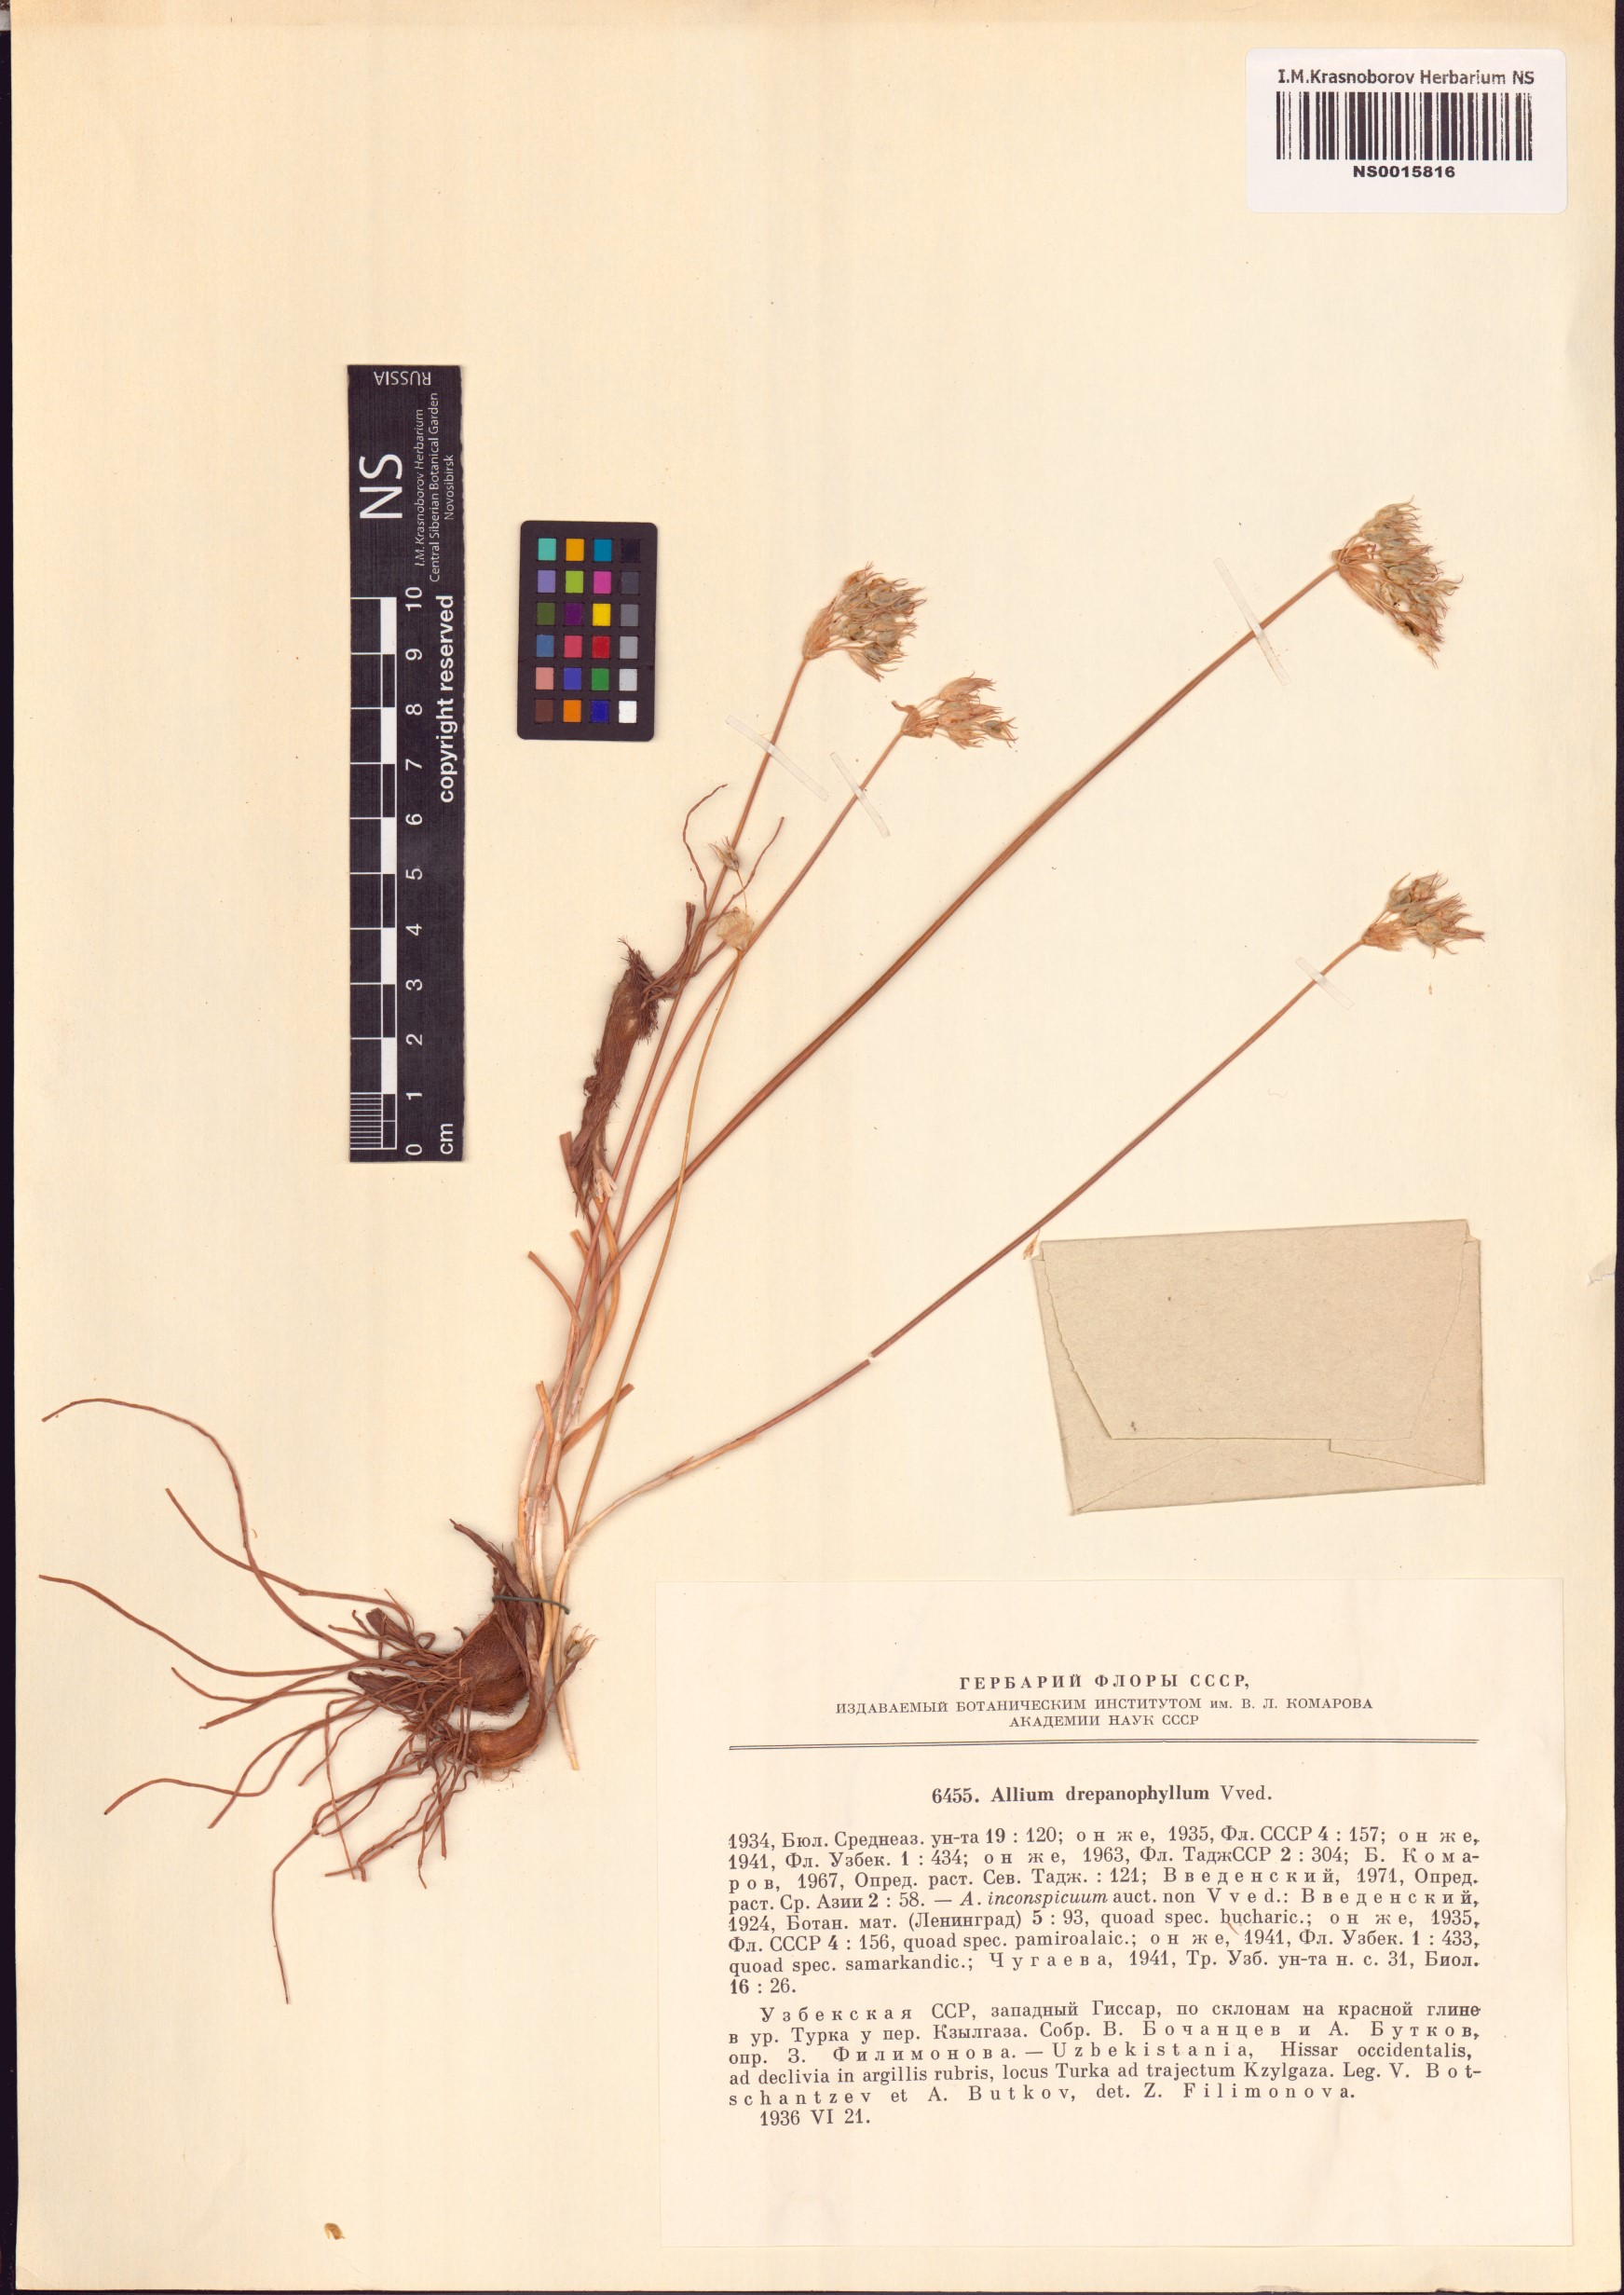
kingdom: Plantae
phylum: Tracheophyta
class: Liliopsida
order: Asparagales
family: Amaryllidaceae
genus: Allium
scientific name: Allium drepanophyllum
